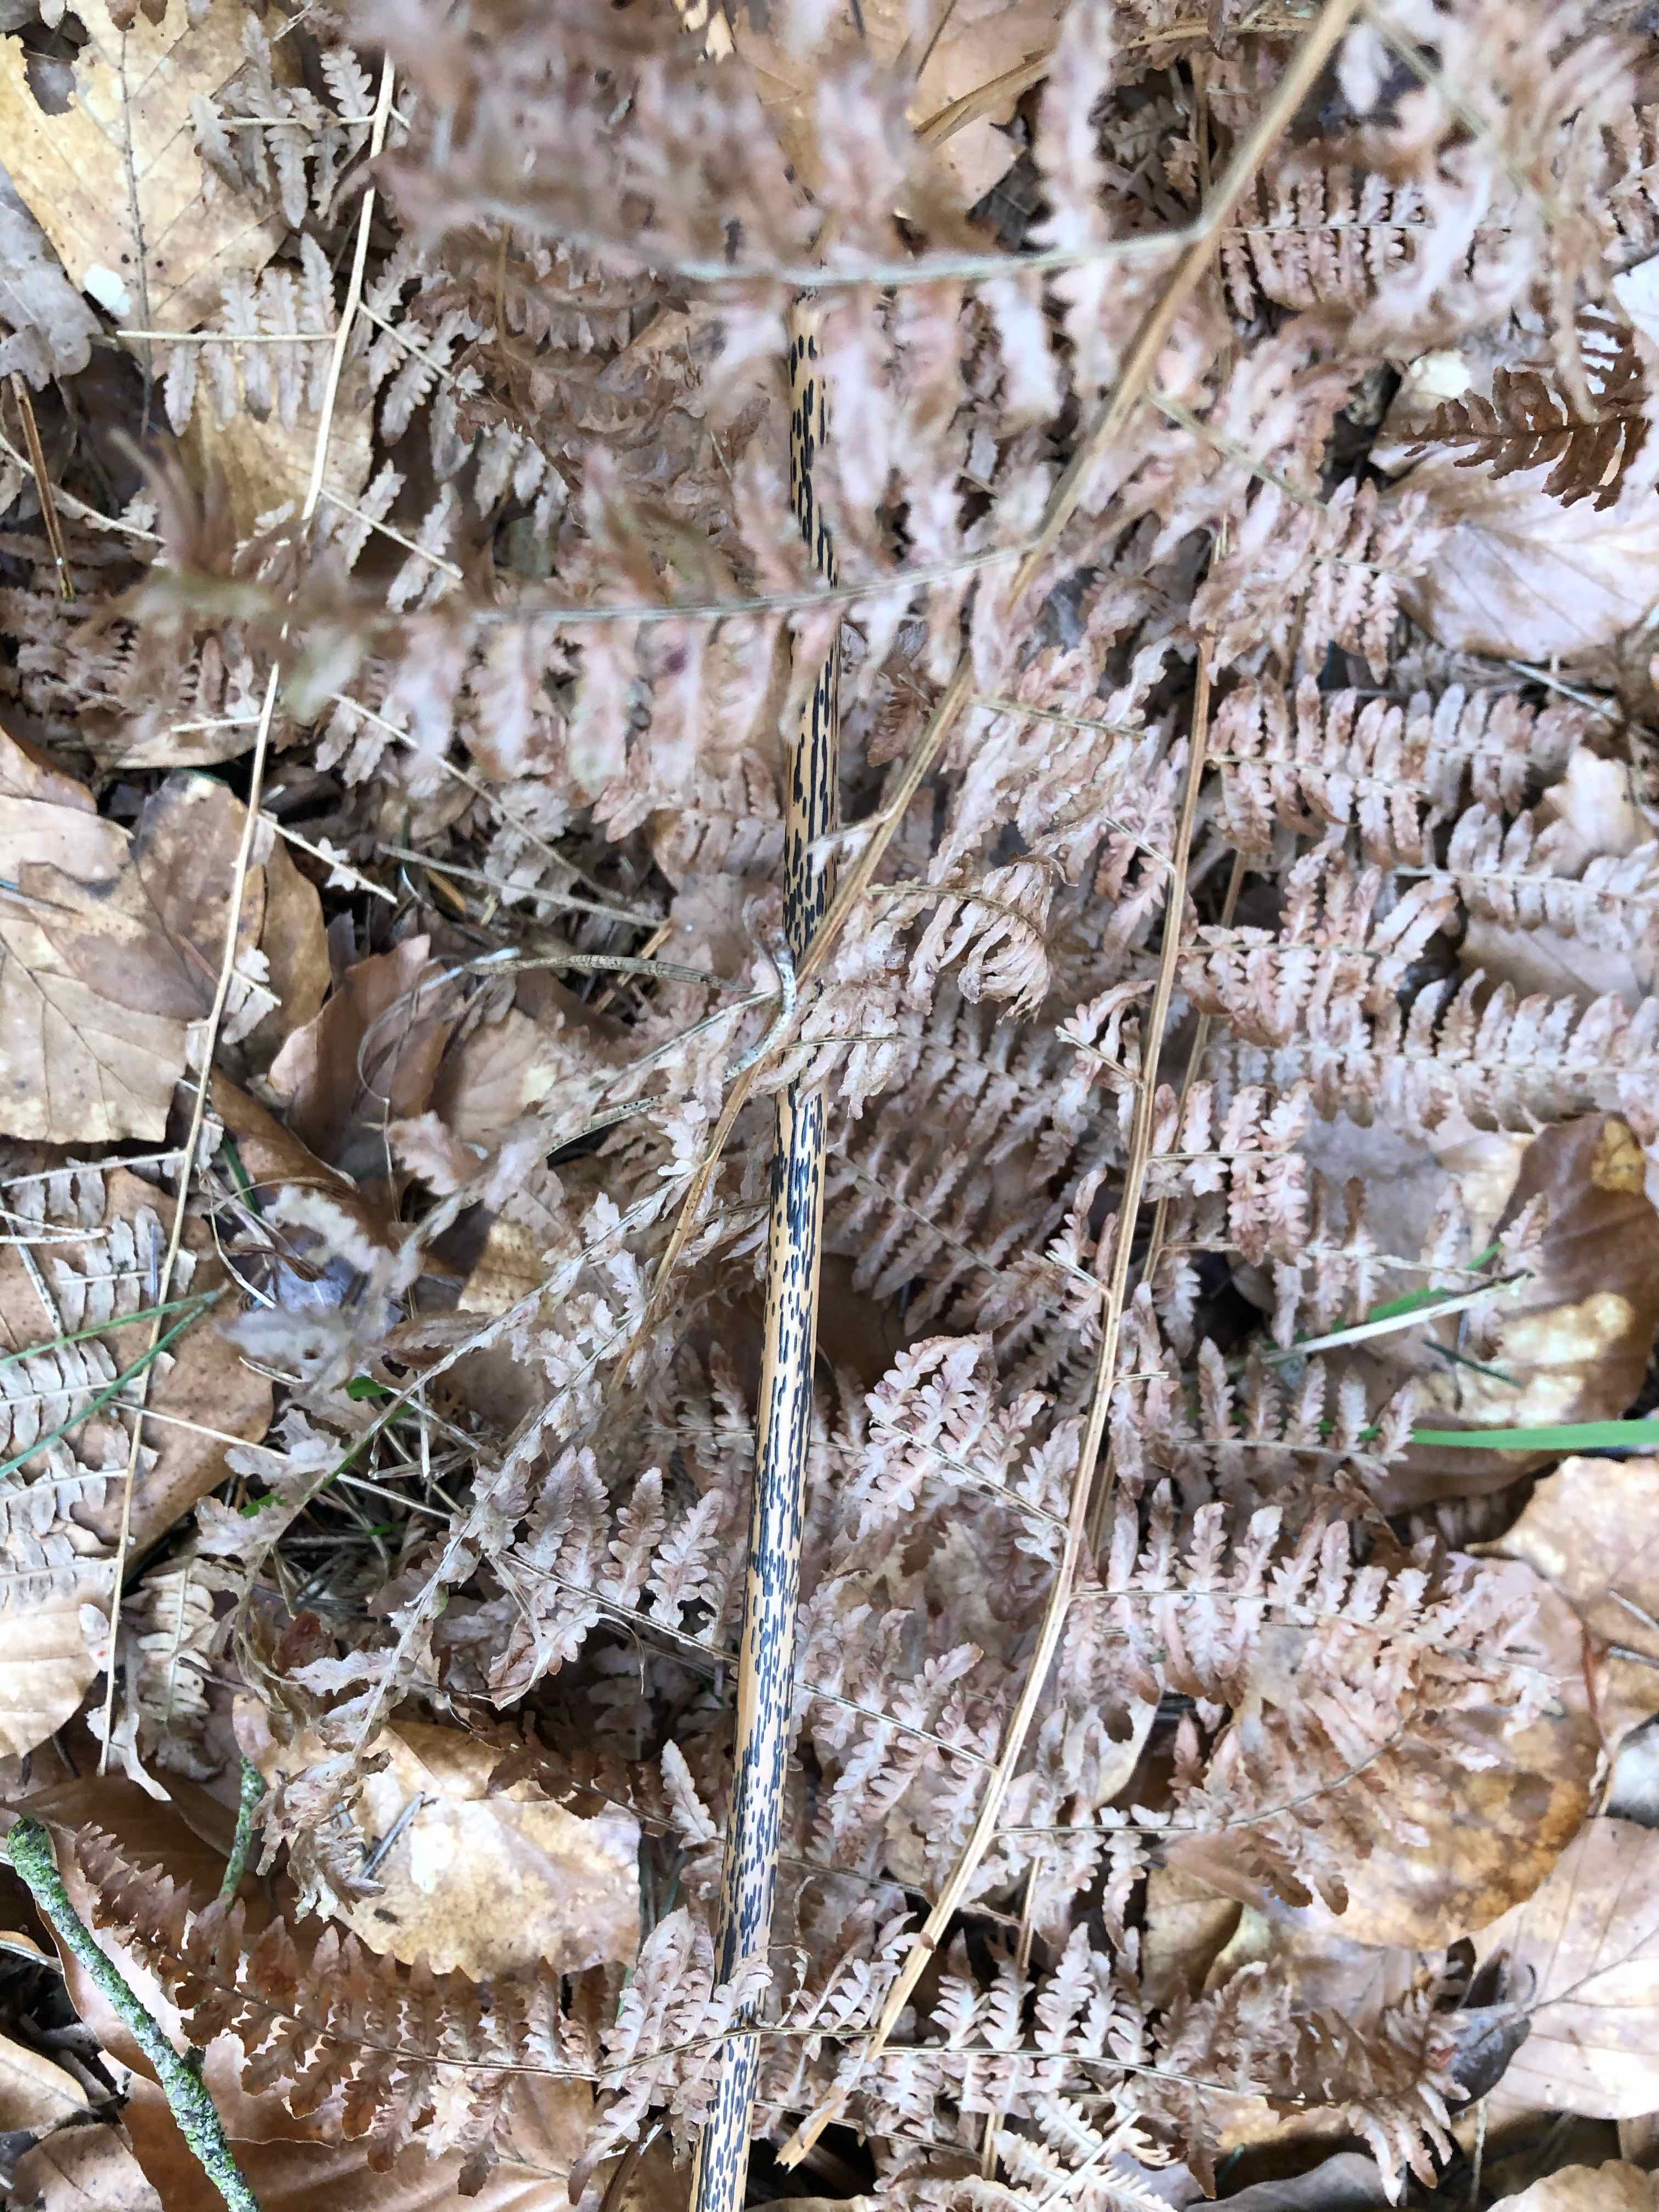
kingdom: Fungi
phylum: Ascomycota
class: Dothideomycetes
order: Pleosporales
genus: Rhopographus
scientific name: Rhopographus filicinus
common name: Bracken map
